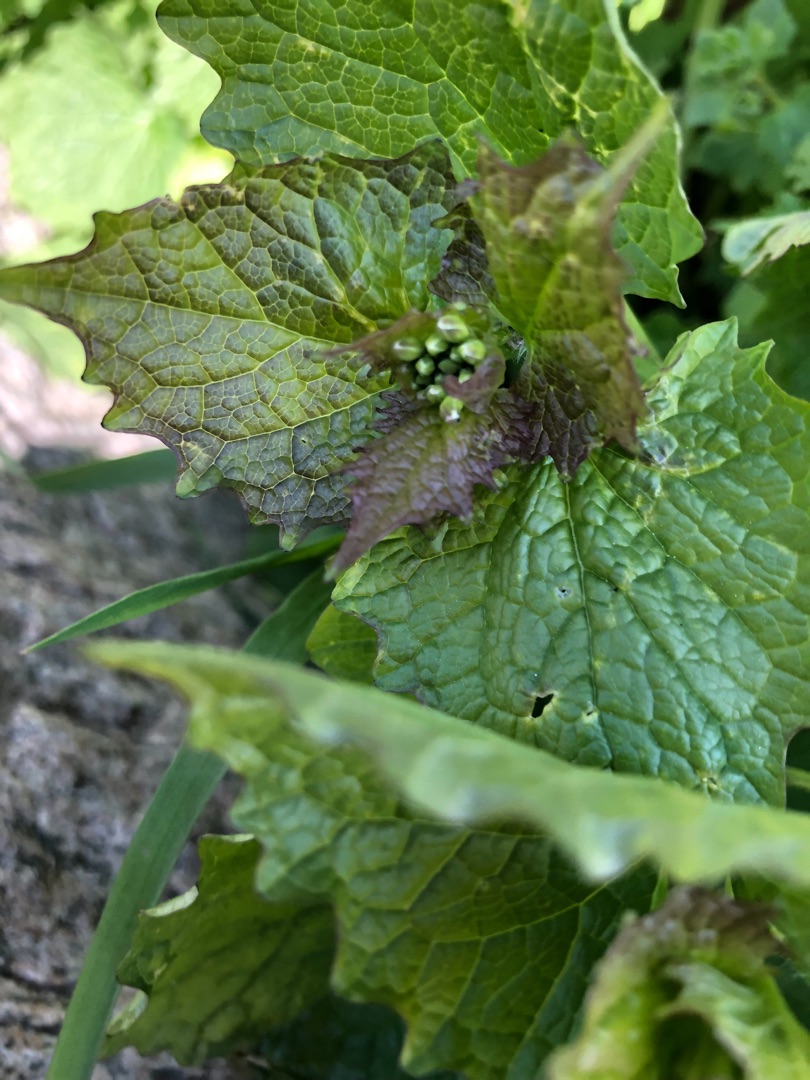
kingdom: Plantae
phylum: Tracheophyta
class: Magnoliopsida
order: Brassicales
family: Brassicaceae
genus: Alliaria
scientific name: Alliaria petiolata
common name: Løgkarse
